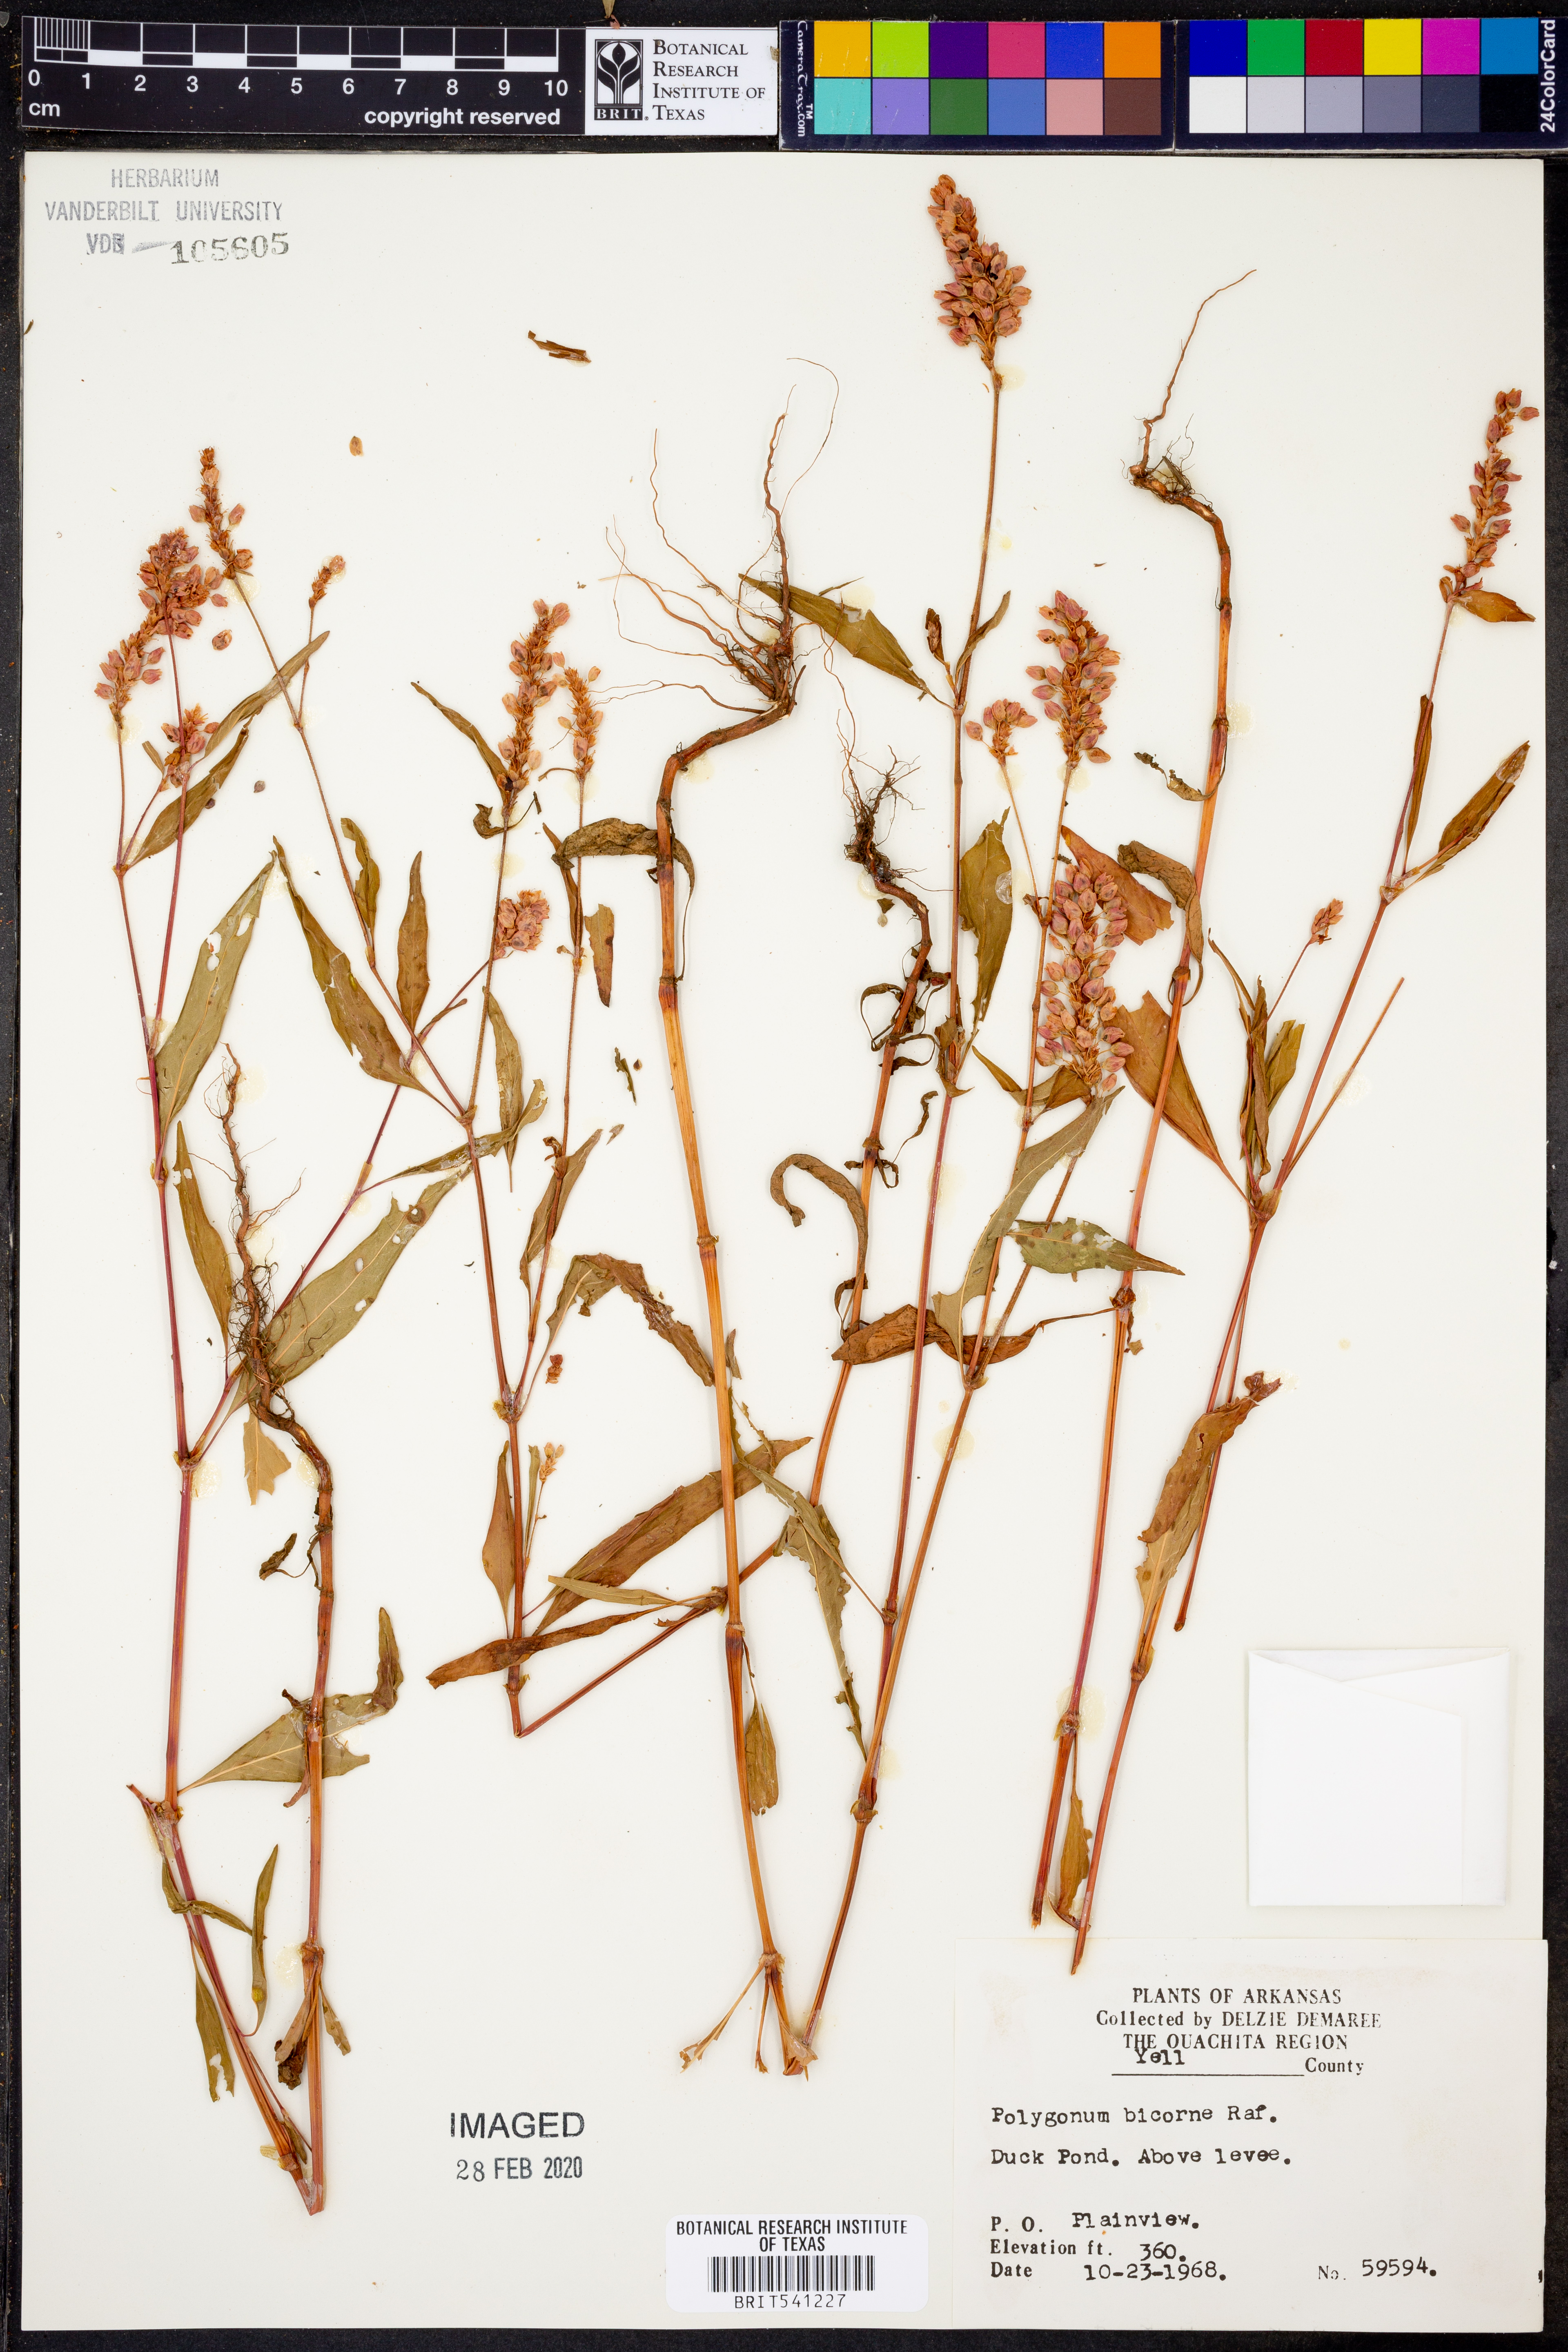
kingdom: Plantae
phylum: Tracheophyta
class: Magnoliopsida
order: Caryophyllales
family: Polygonaceae
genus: Persicaria
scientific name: Persicaria bicornis
